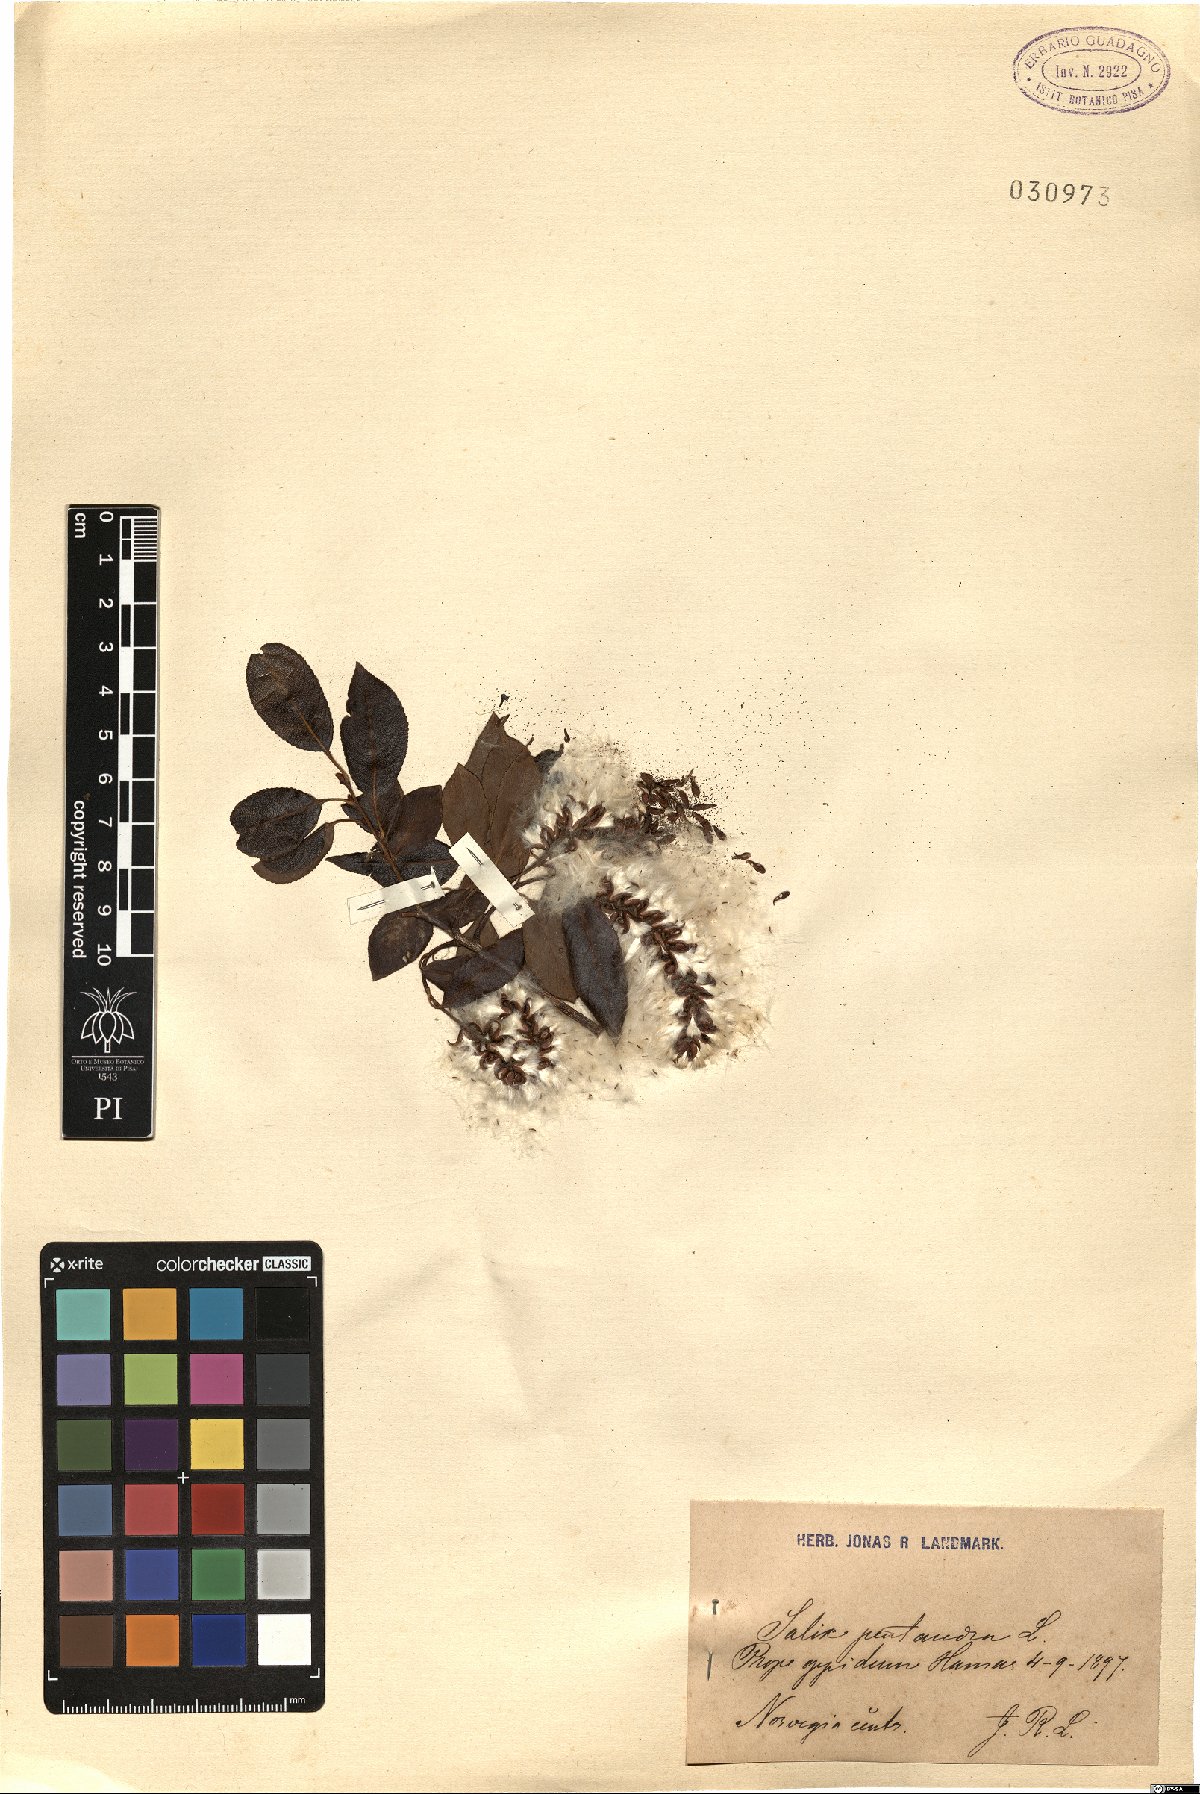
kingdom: Plantae
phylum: Tracheophyta
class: Magnoliopsida
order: Malpighiales
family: Salicaceae
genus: Salix
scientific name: Salix pentandra
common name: Bay willow
